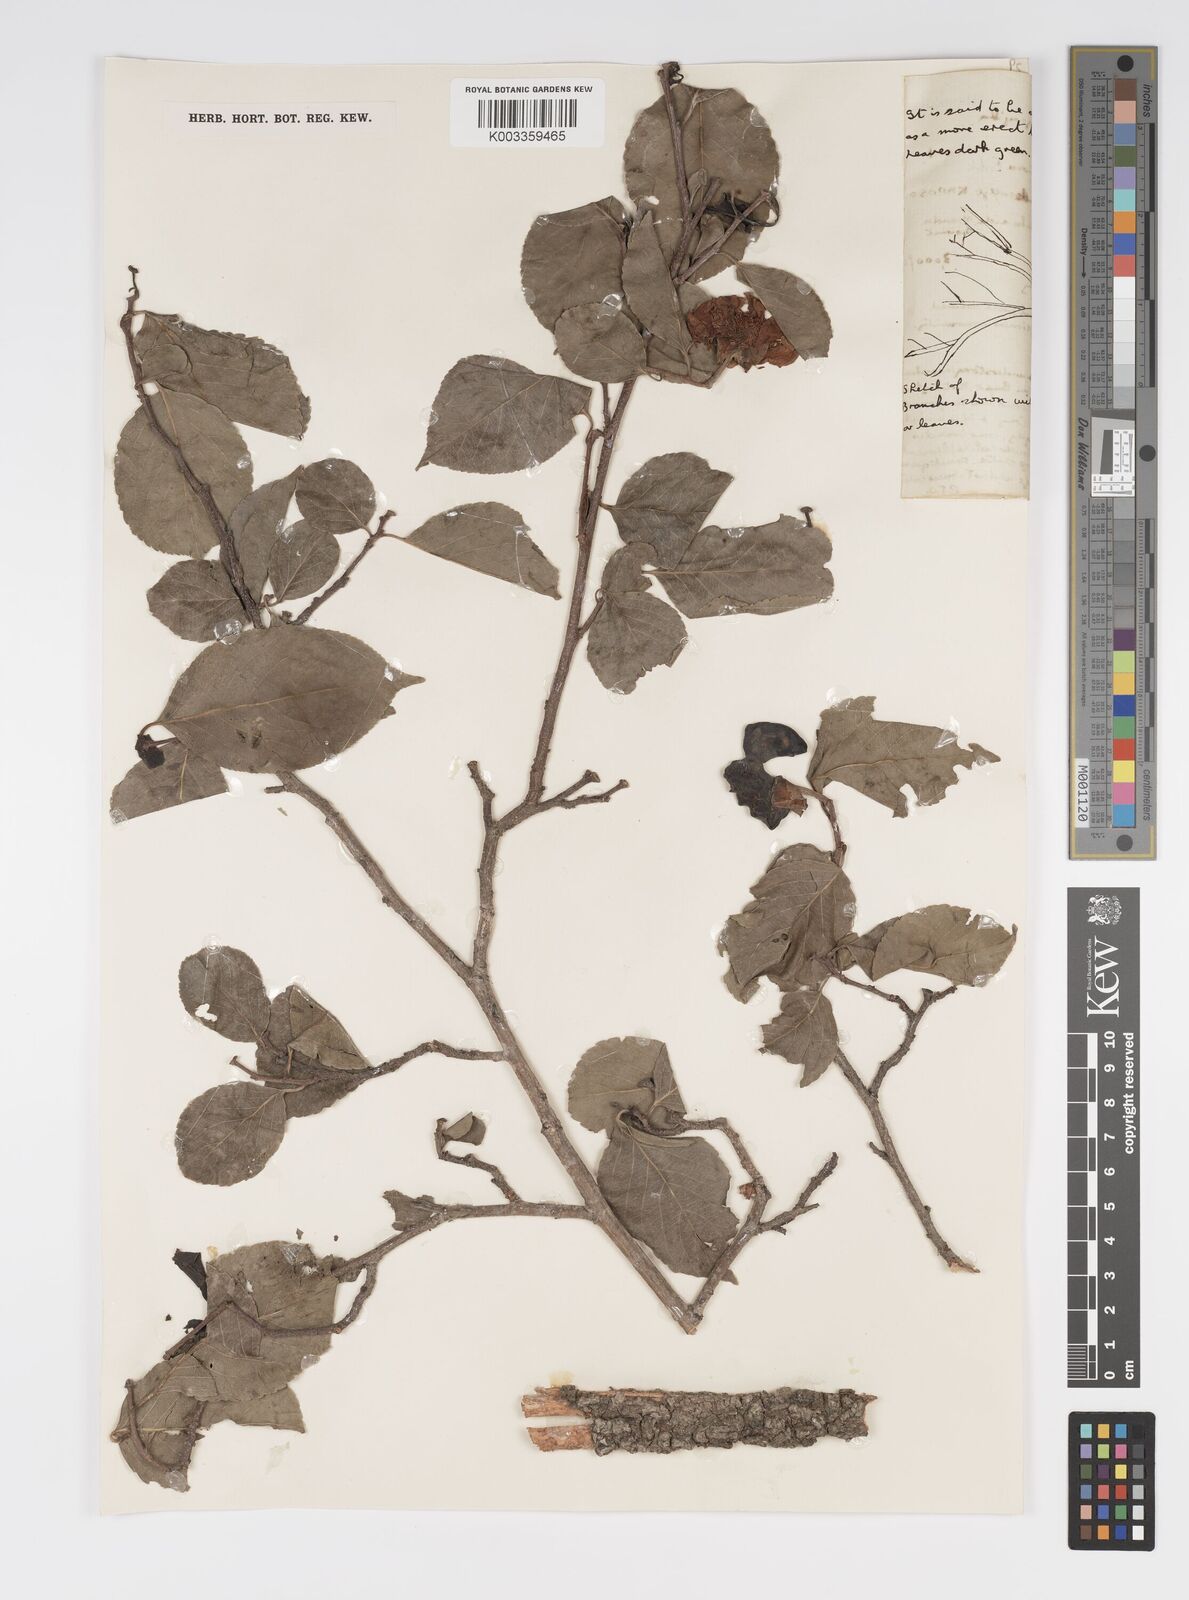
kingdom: Plantae
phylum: Tracheophyta
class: Magnoliopsida
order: Malpighiales
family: Salicaceae
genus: Oncoba
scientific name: Oncoba spinosa
